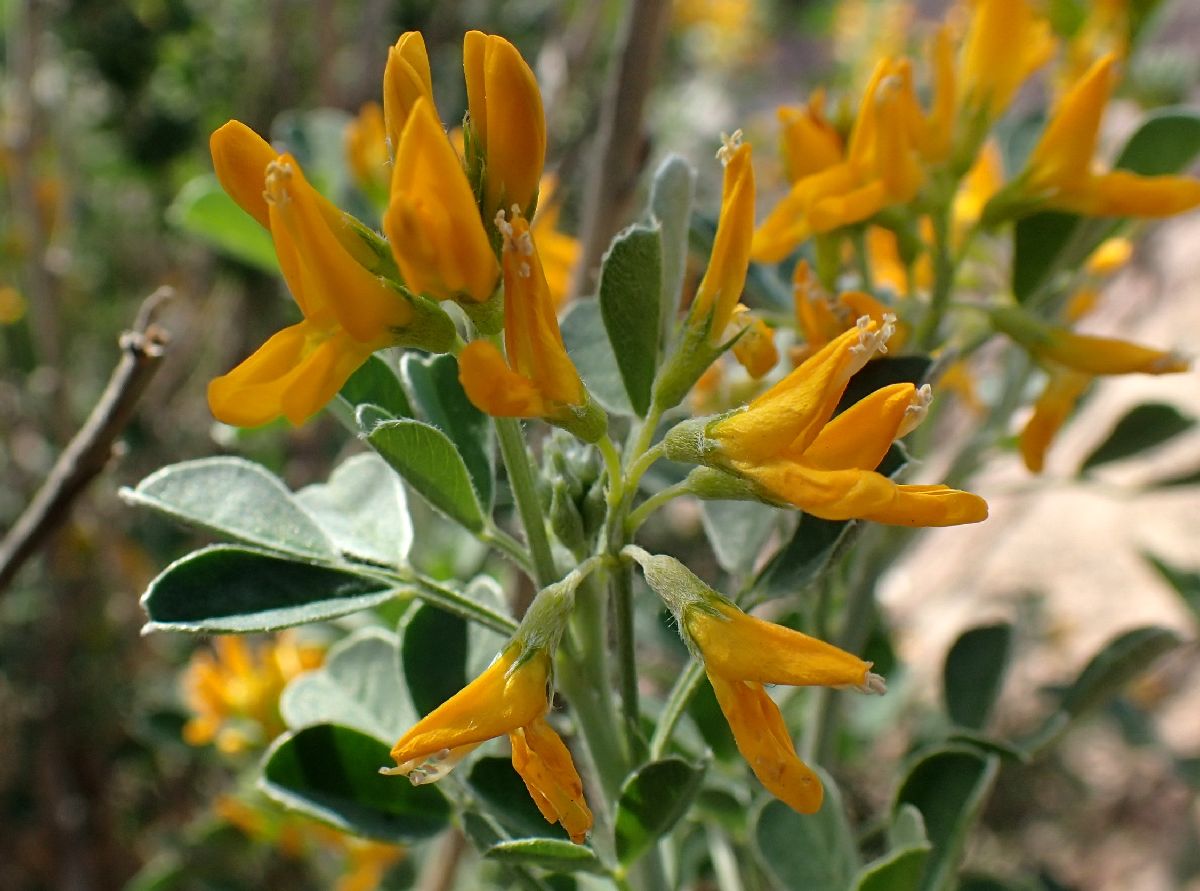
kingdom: Plantae
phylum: Tracheophyta
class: Magnoliopsida
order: Fabales
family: Fabaceae
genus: Medicago
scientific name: Medicago arborea
